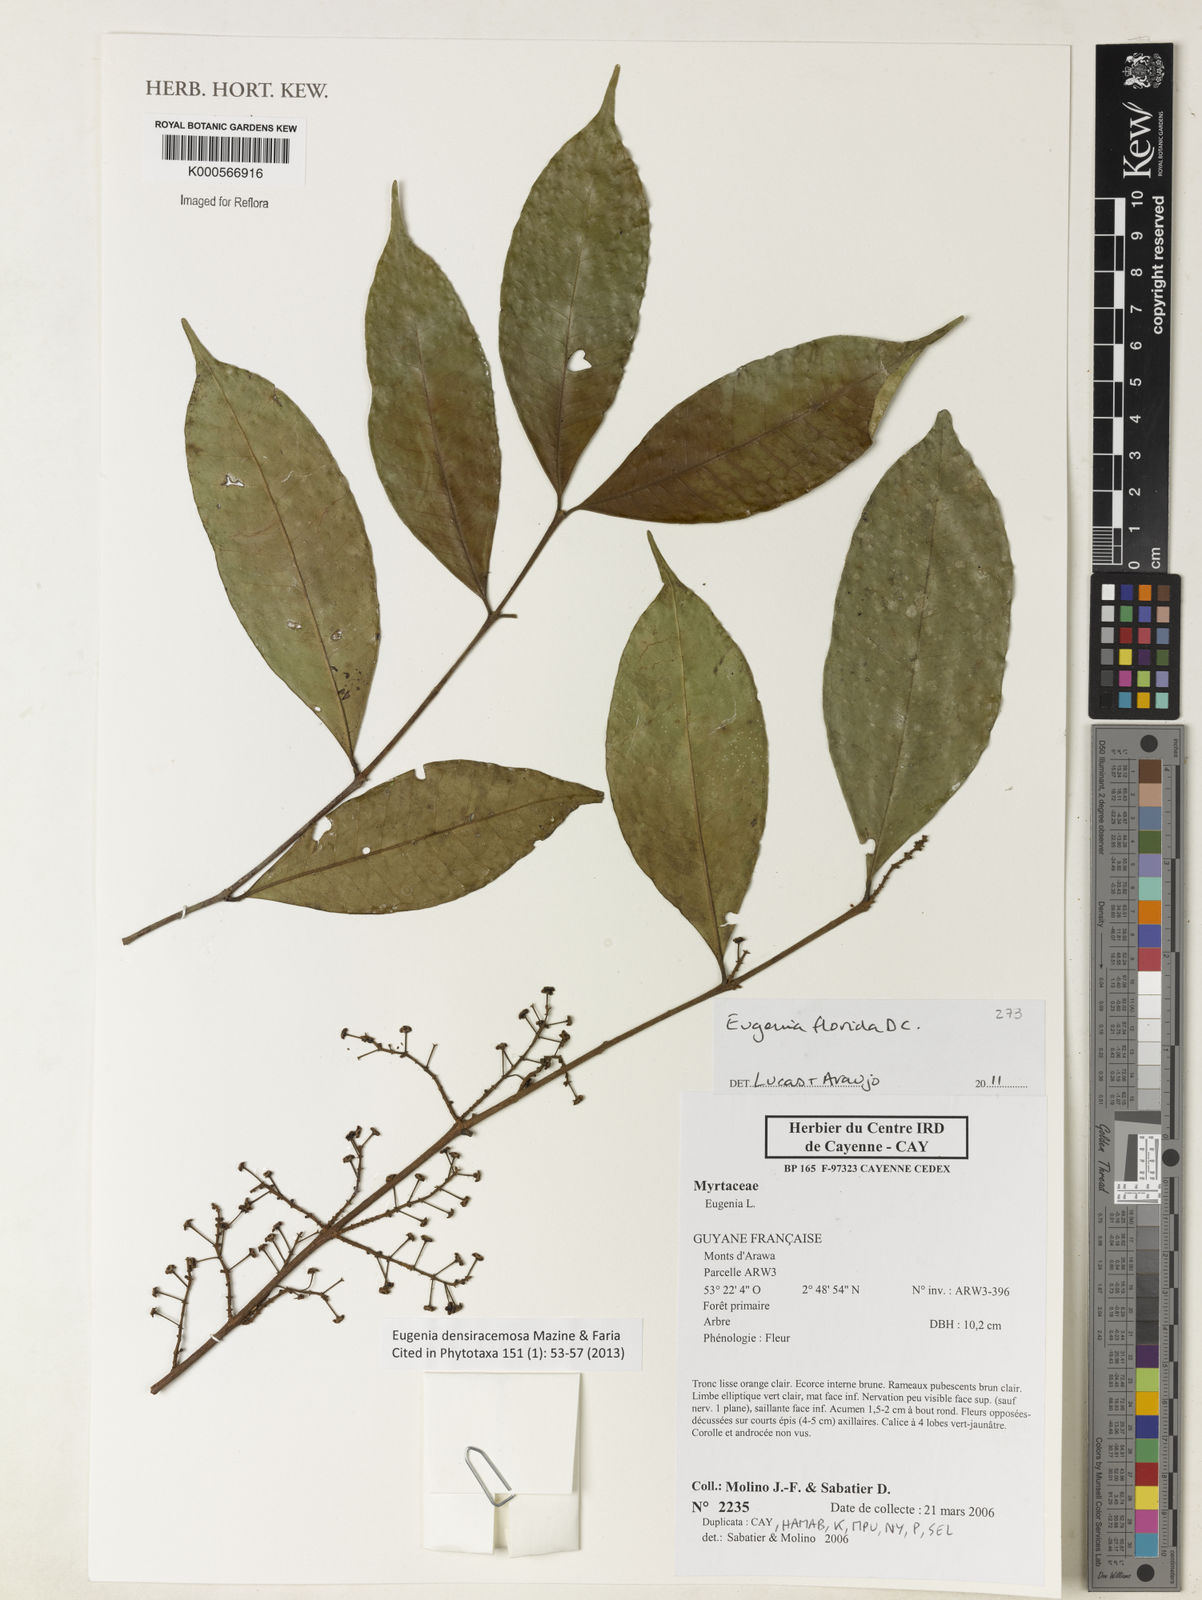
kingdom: Plantae
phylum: Tracheophyta
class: Magnoliopsida
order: Myrtales
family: Myrtaceae
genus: Eugenia
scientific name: Eugenia densiracemosa
